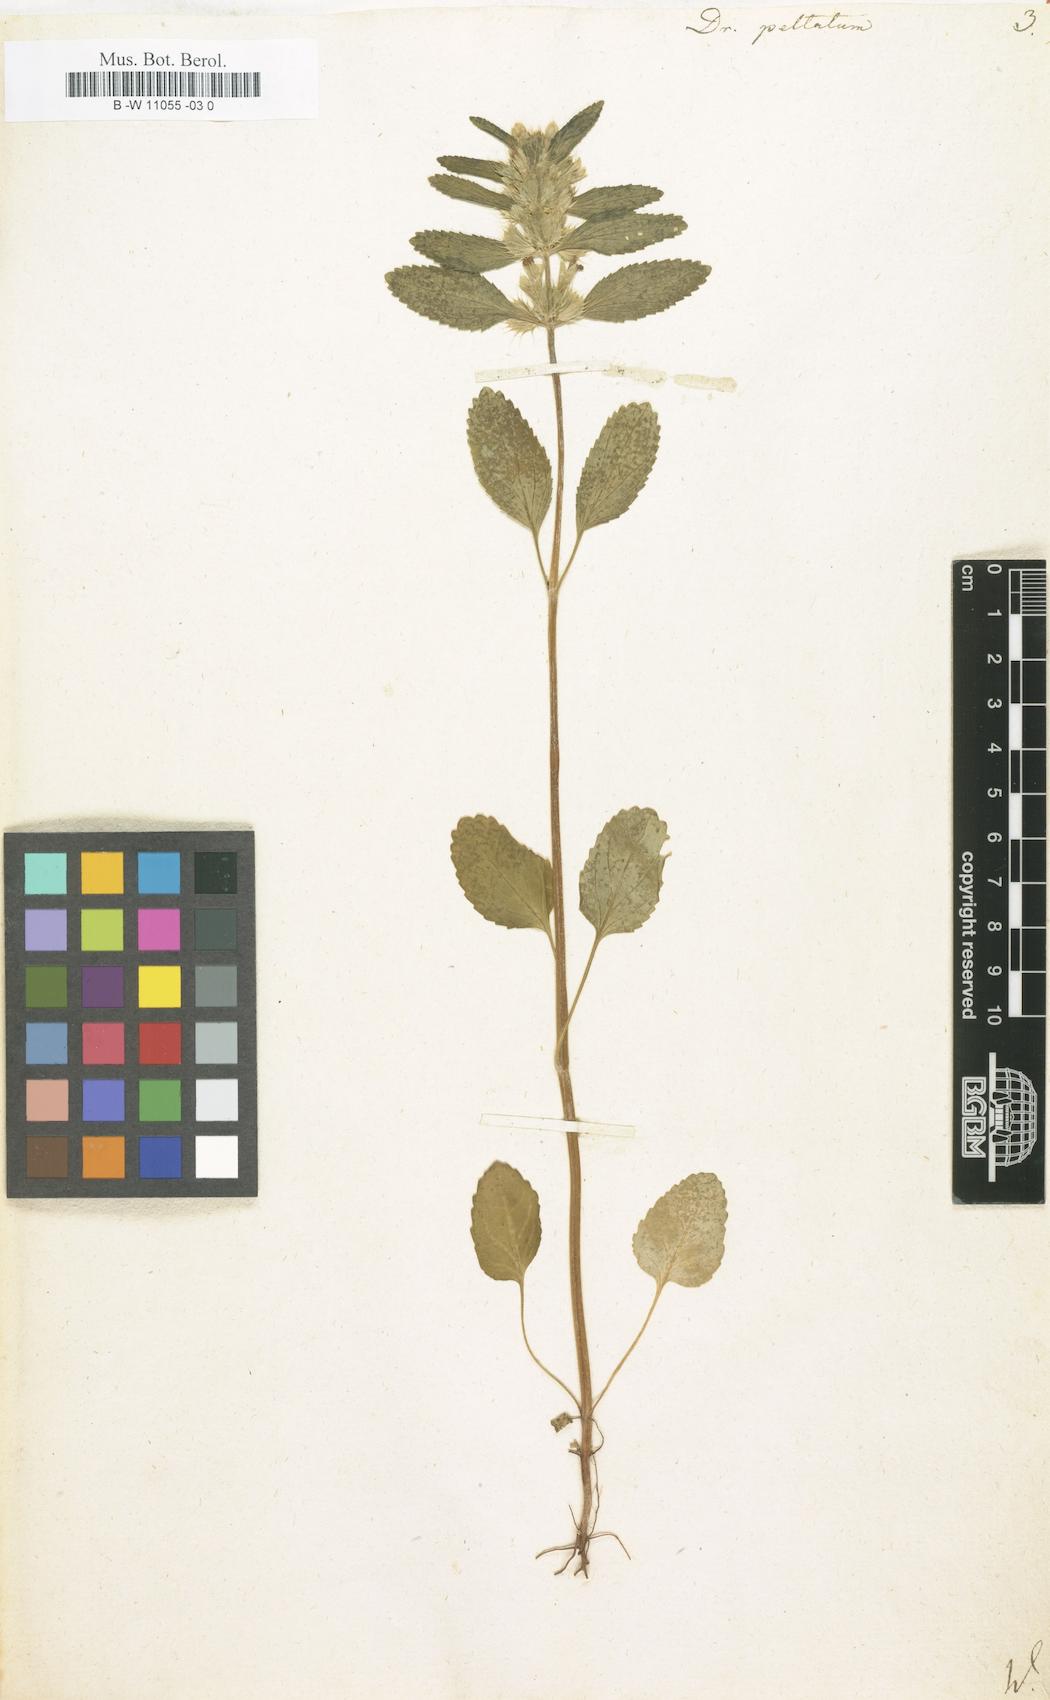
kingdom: Plantae
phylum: Tracheophyta
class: Magnoliopsida
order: Lamiales
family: Lamiaceae
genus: Lallemantia
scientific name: Lallemantia peltata
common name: Lion's heart
